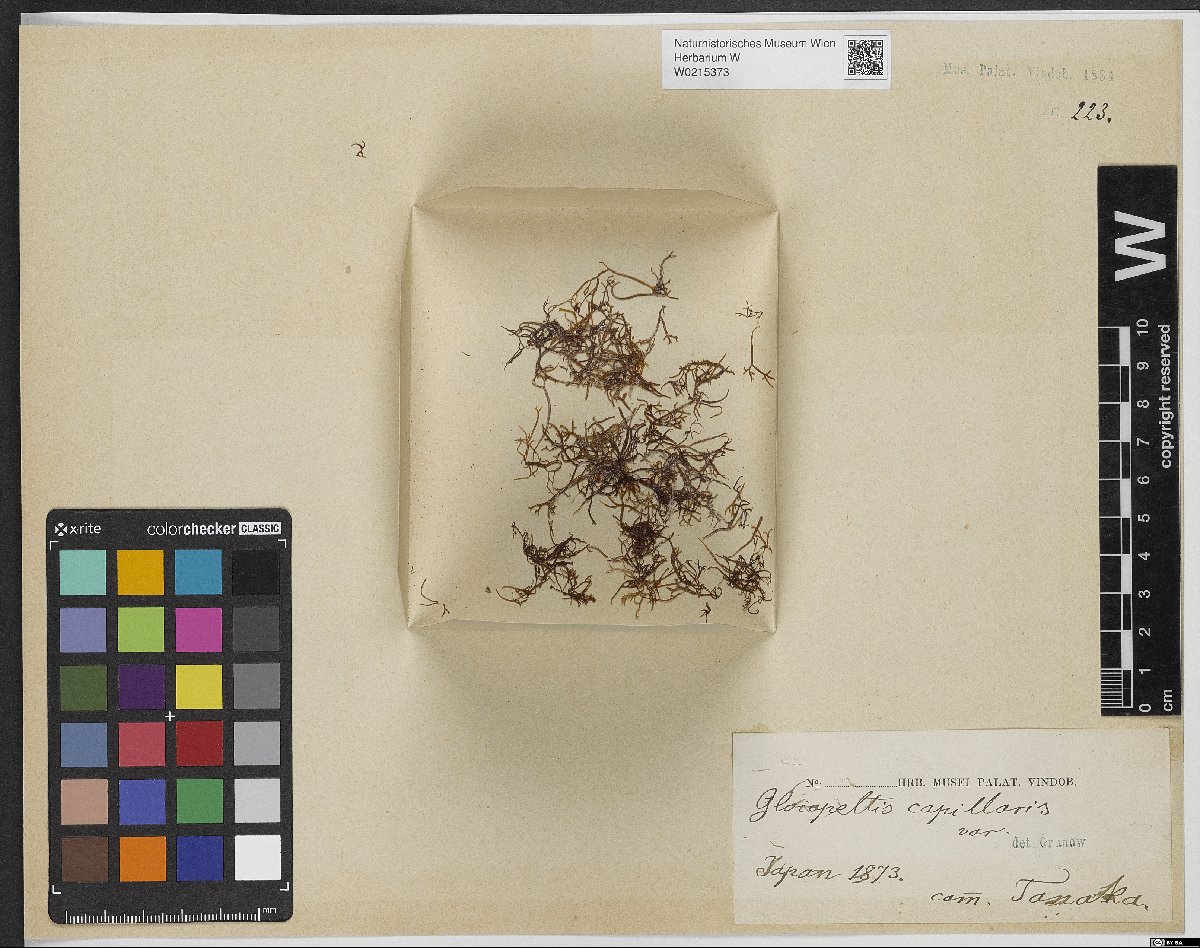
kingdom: Plantae
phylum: Rhodophyta
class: Florideophyceae
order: Gigartinales
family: Endocladiaceae
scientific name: Endocladiaceae
